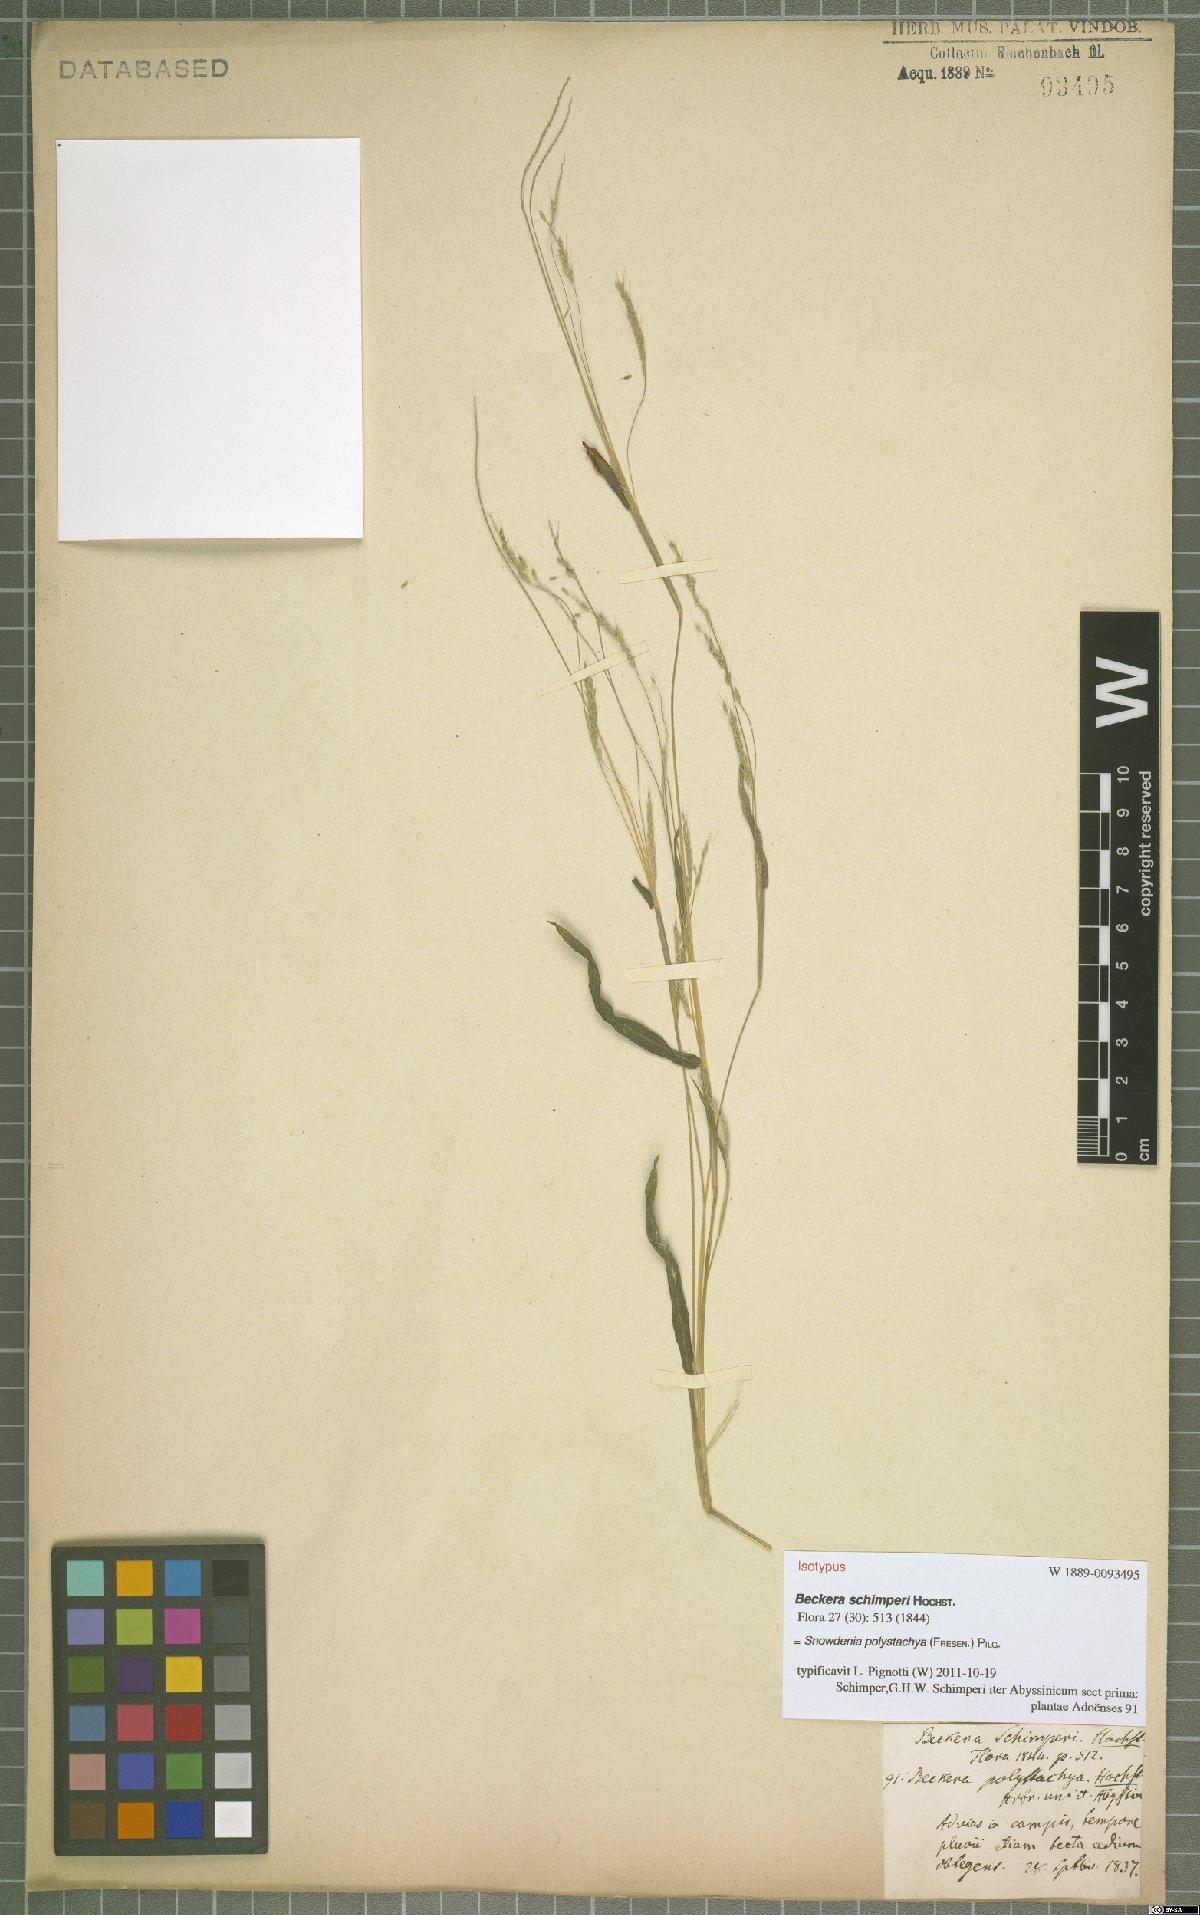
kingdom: Plantae
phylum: Tracheophyta
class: Liliopsida
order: Poales
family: Poaceae
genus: Snowdenia
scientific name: Snowdenia polystachya
